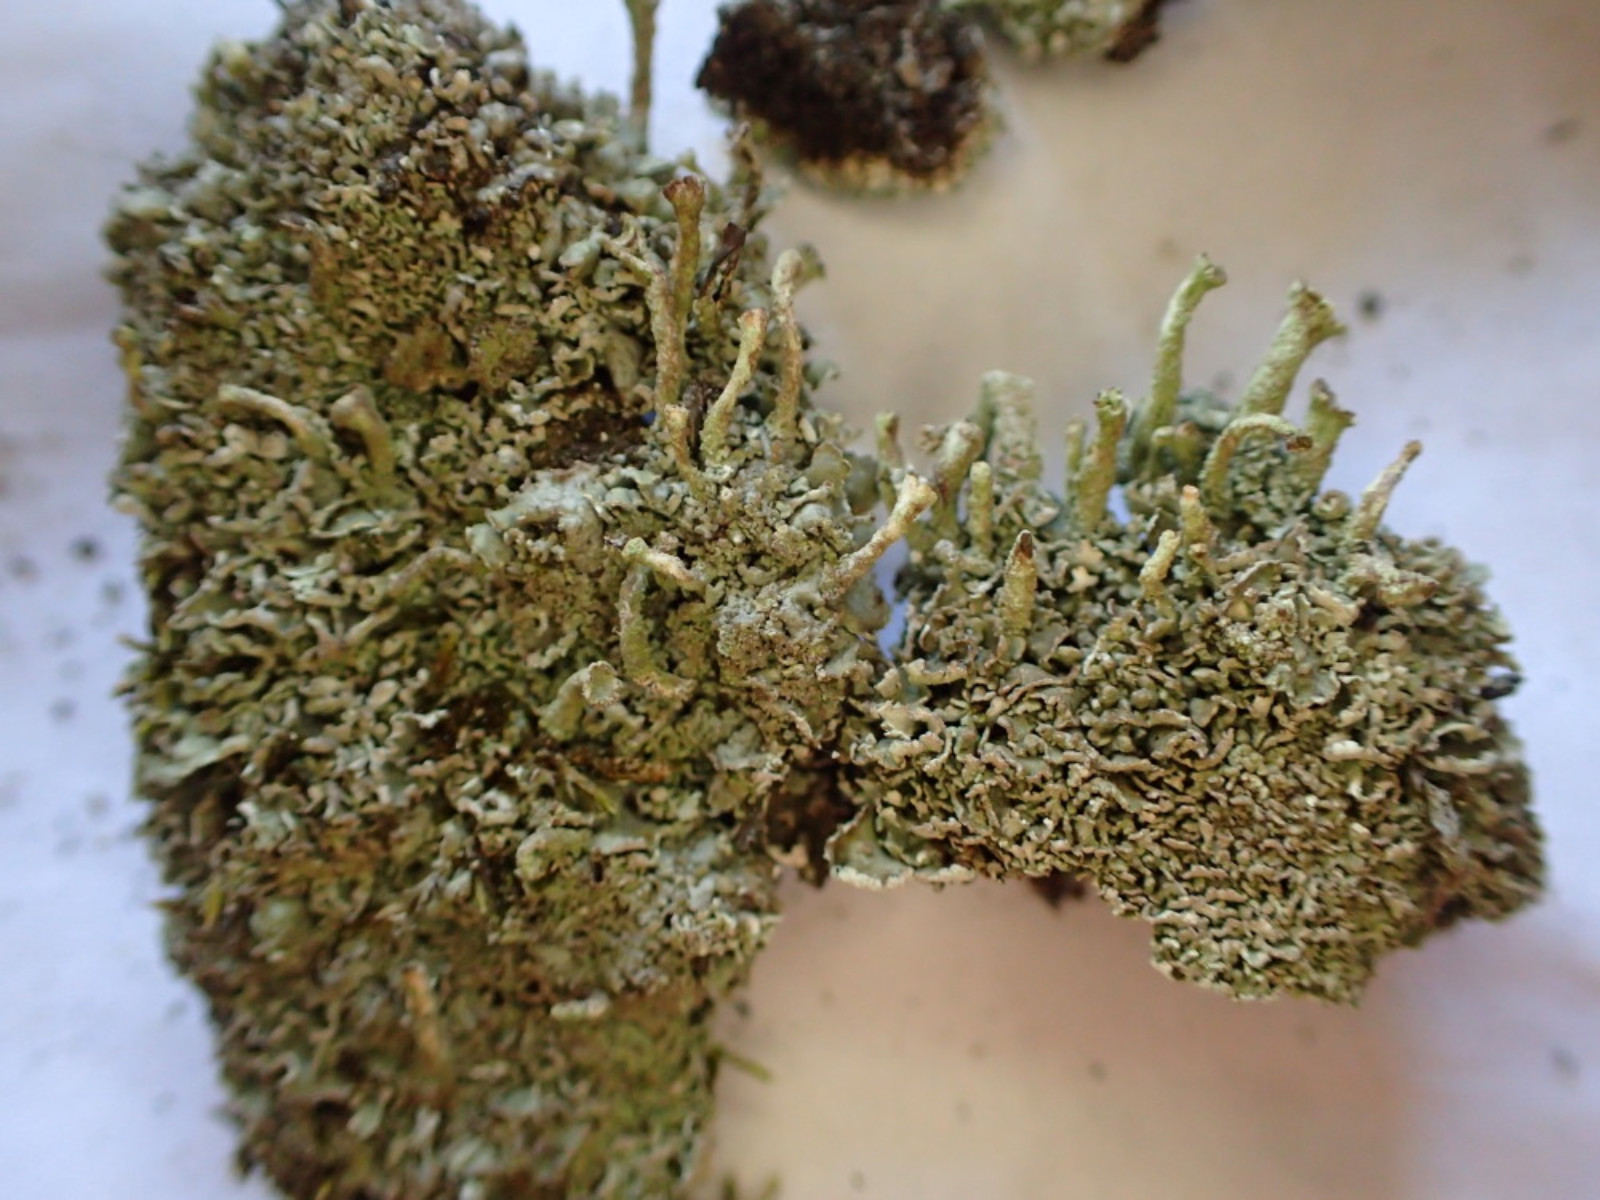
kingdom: Fungi
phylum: Ascomycota
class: Lecanoromycetes
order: Lecanorales
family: Cladoniaceae
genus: Cladonia
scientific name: Cladonia
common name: brungrøn bægerlav
